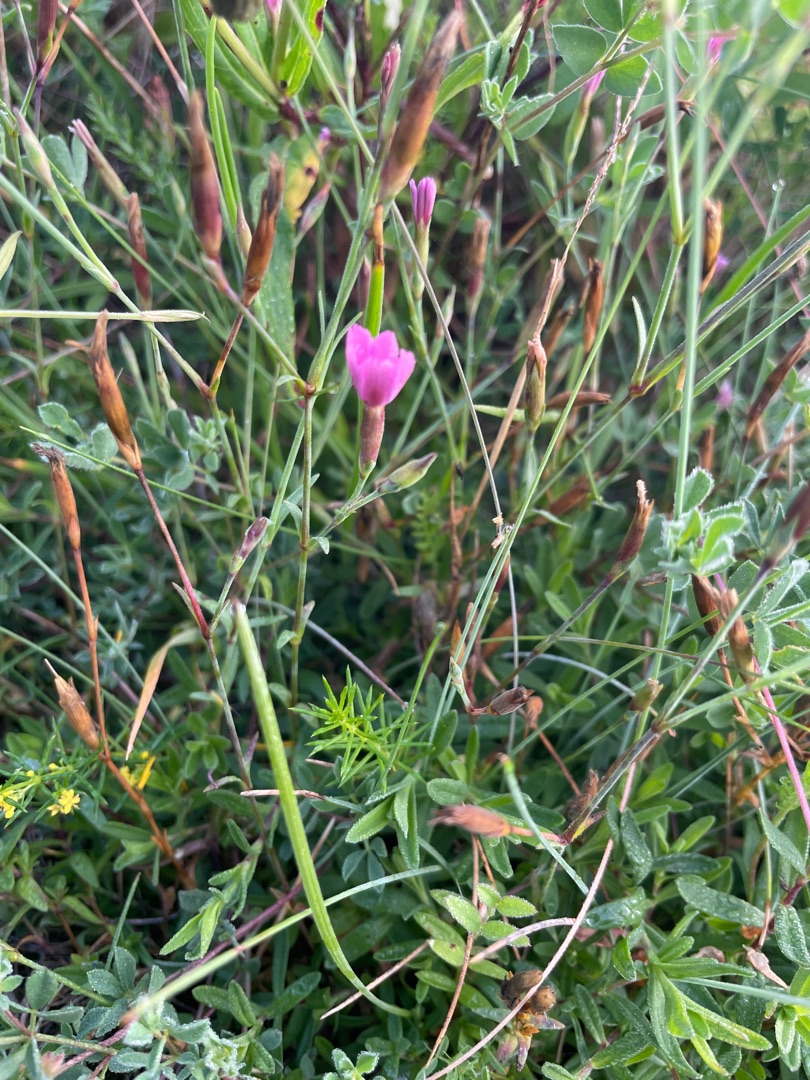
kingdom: Plantae
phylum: Tracheophyta
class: Magnoliopsida
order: Caryophyllales
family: Caryophyllaceae
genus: Dianthus
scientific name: Dianthus deltoides
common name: Bakke-nellike
